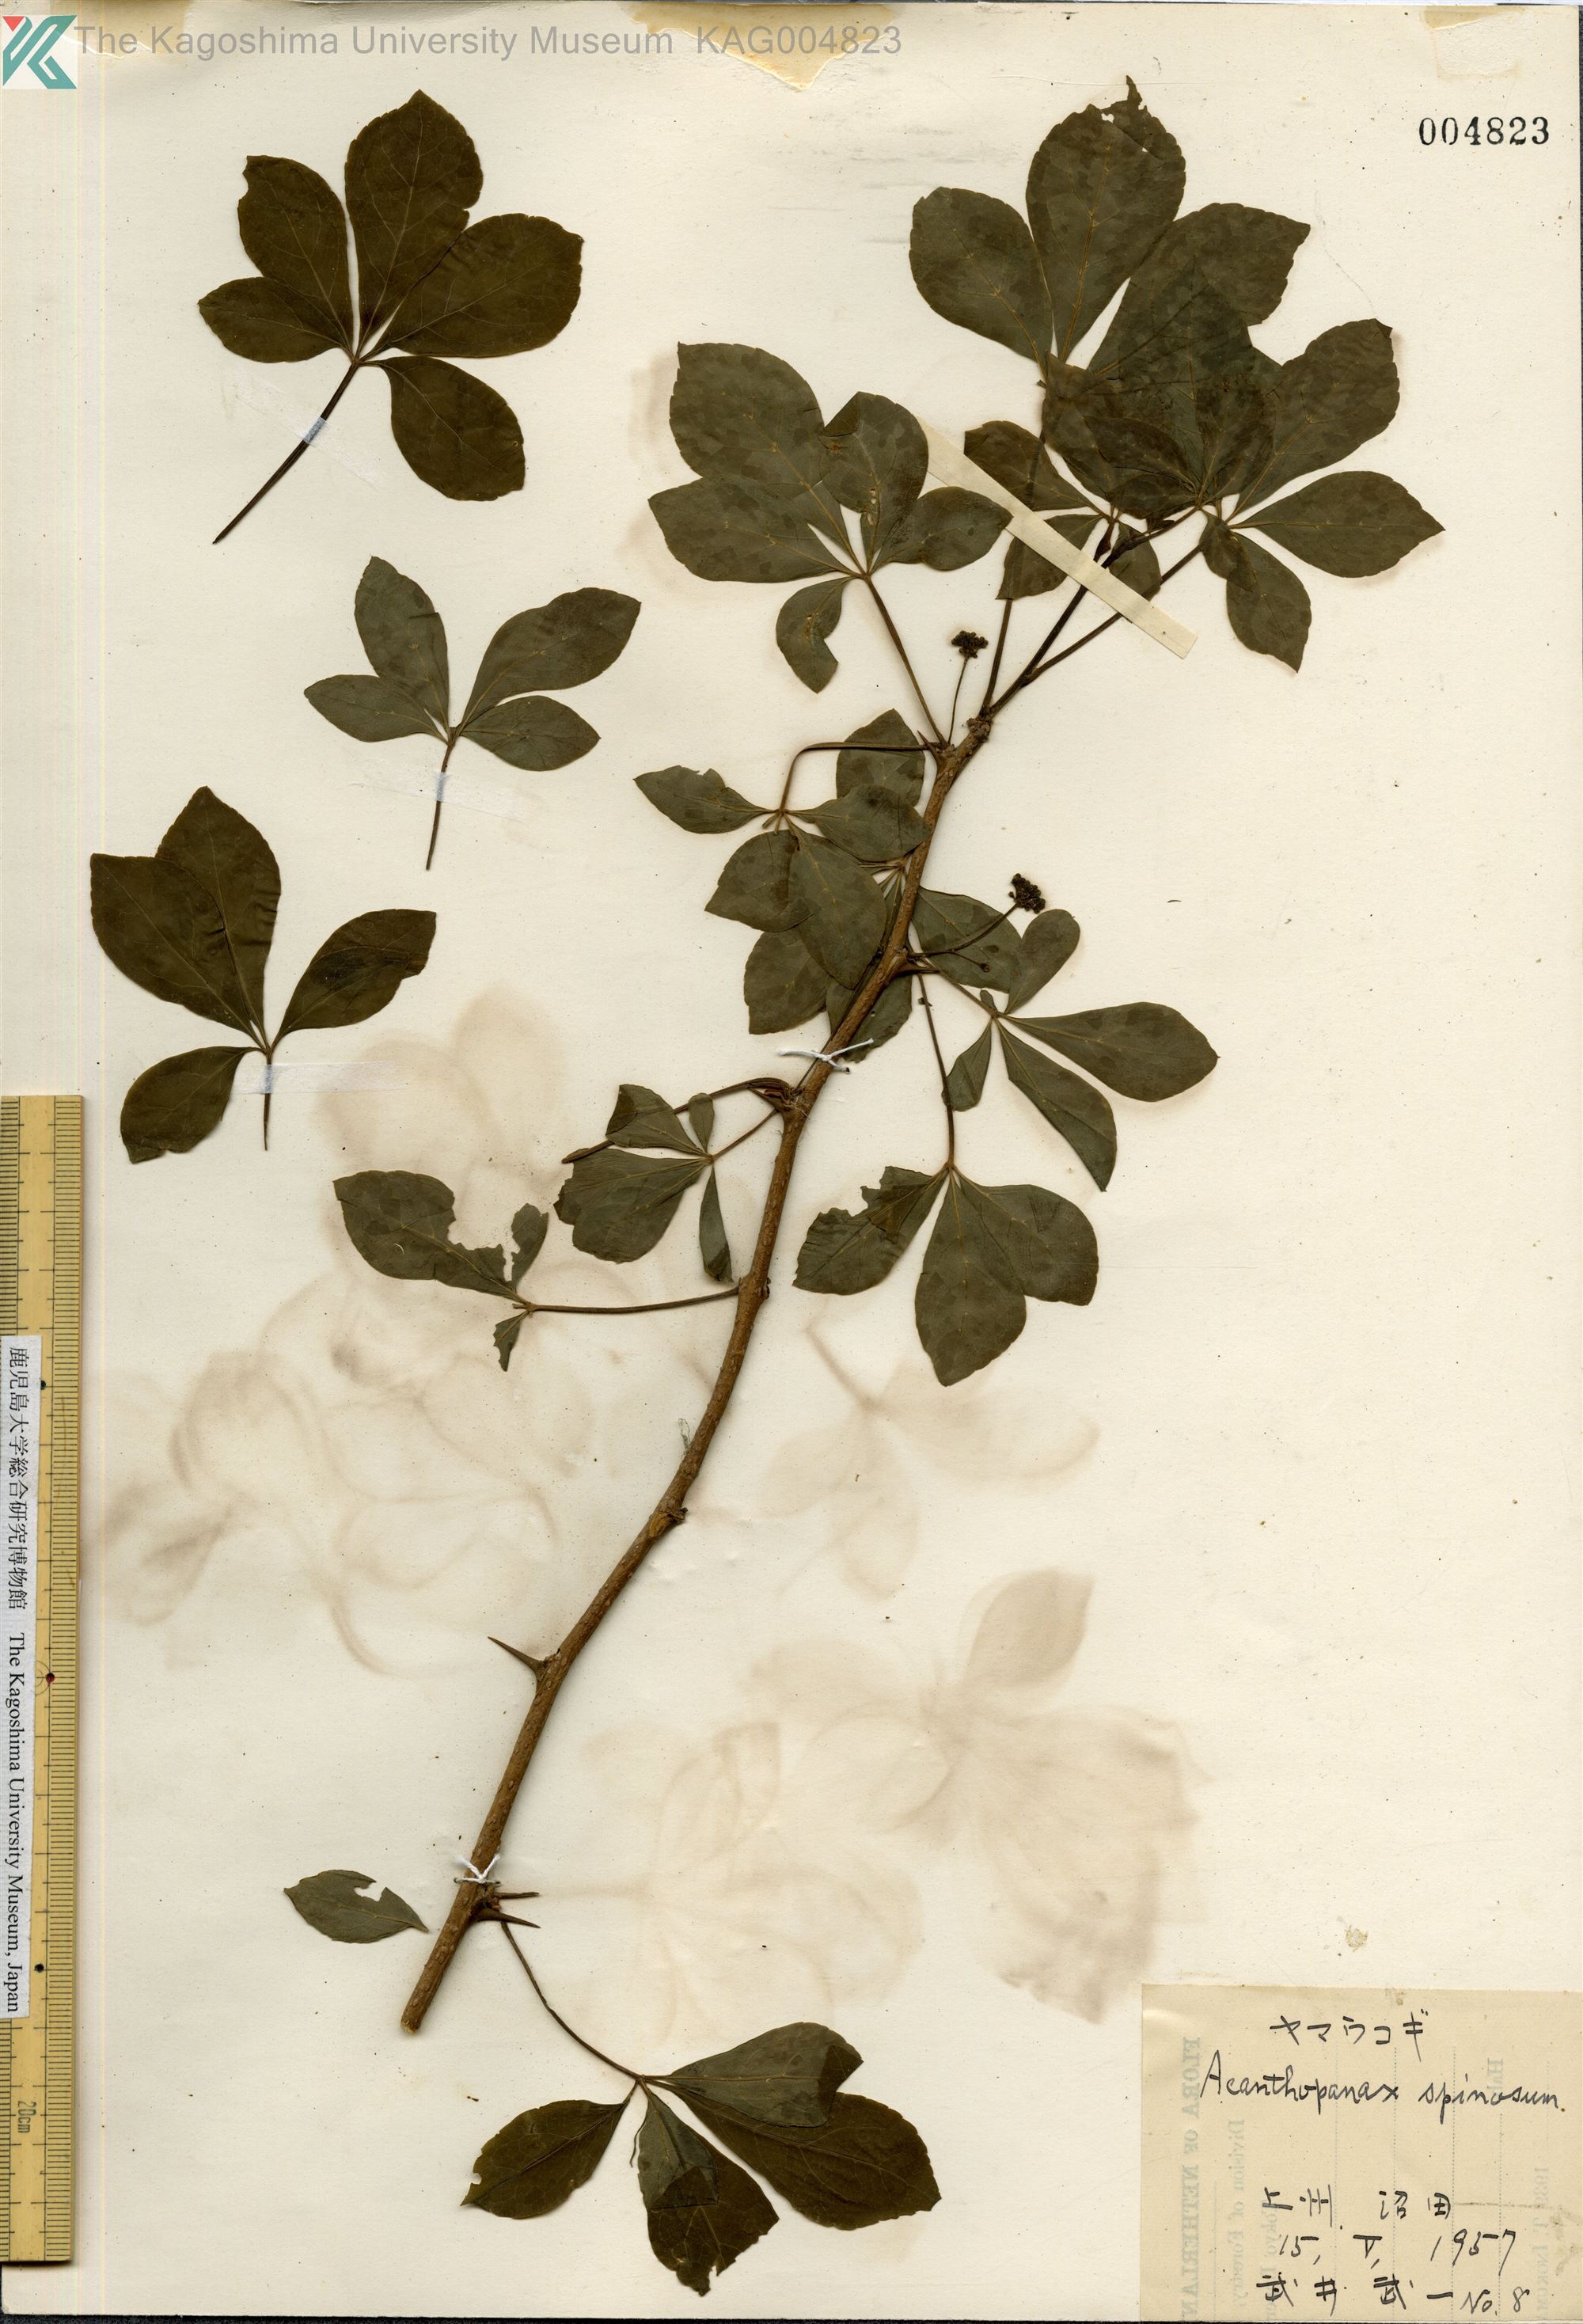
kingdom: Plantae
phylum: Tracheophyta
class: Magnoliopsida
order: Apiales
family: Araliaceae
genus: Eleutherococcus
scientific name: Eleutherococcus nodiflorus
